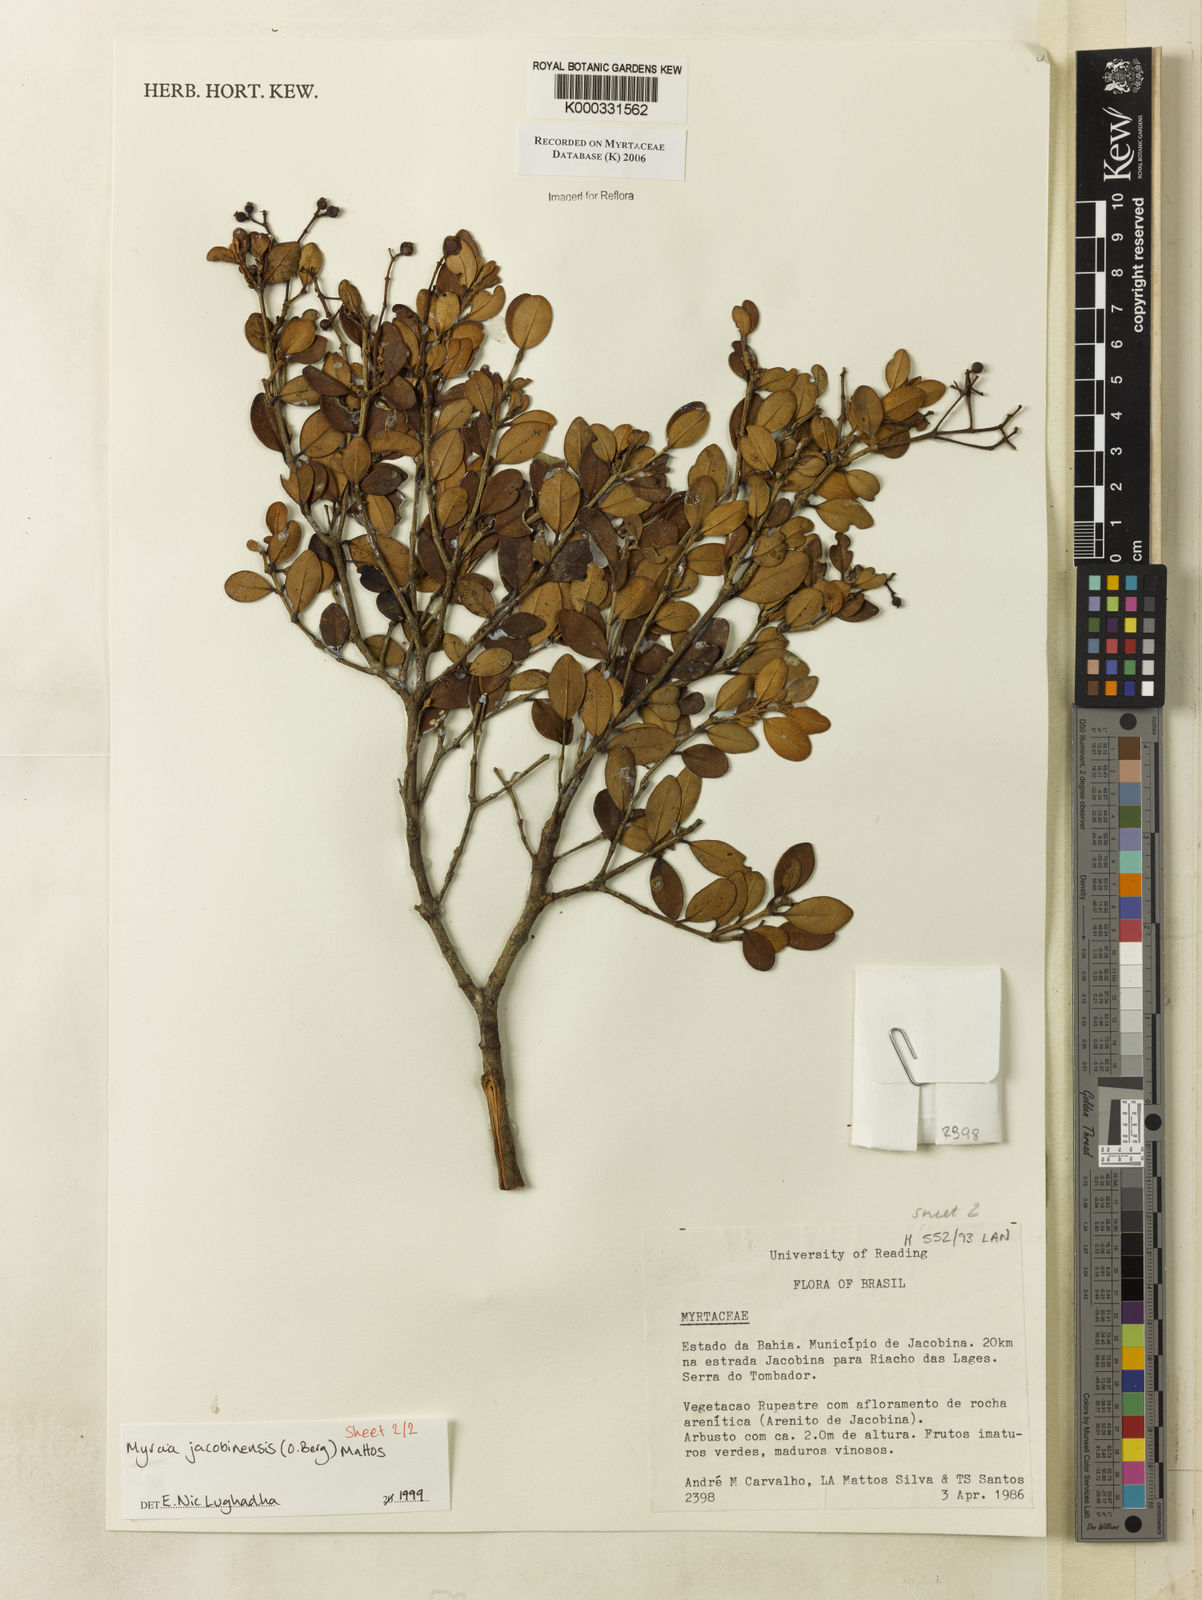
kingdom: Plantae
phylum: Tracheophyta
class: Magnoliopsida
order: Myrtales
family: Myrtaceae
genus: Myrcia
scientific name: Myrcia jacobinensis
